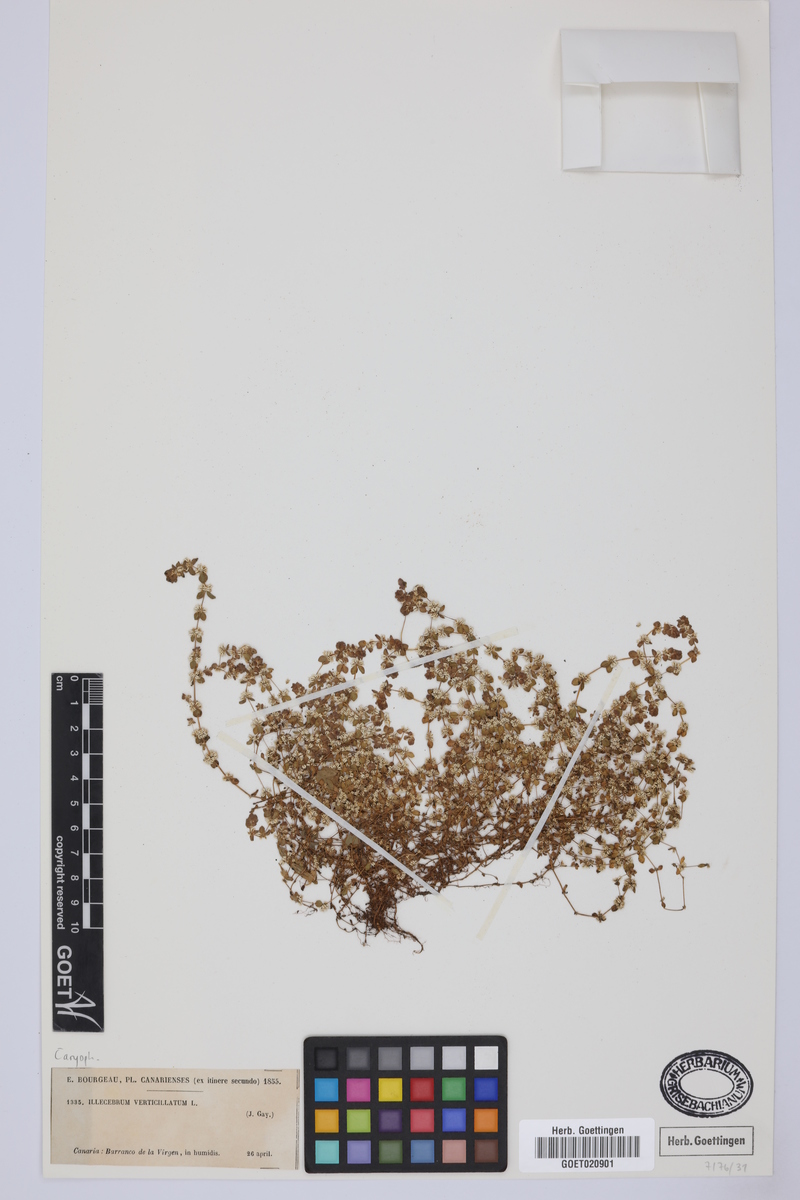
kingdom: Plantae
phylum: Tracheophyta
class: Magnoliopsida
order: Caryophyllales
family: Caryophyllaceae
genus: Illecebrum
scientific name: Illecebrum verticillatum
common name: Coral necklace
